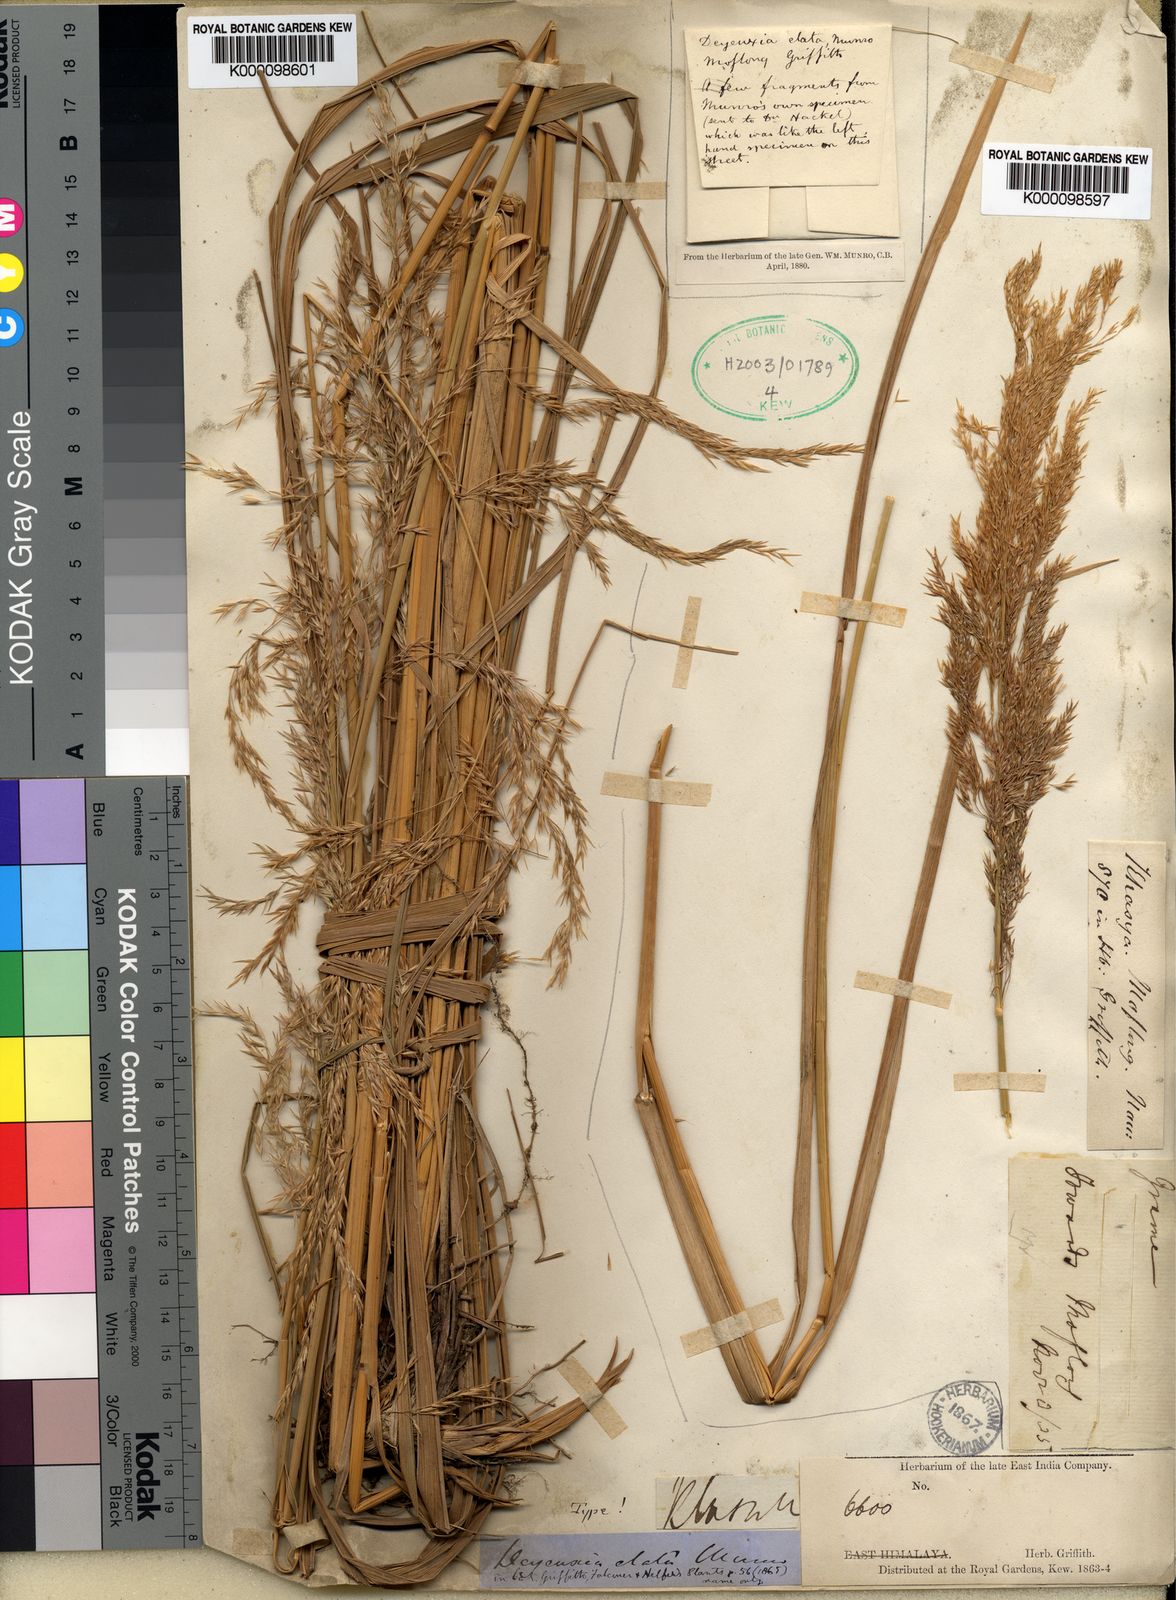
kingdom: Plantae
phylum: Tracheophyta
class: Liliopsida
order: Poales
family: Poaceae
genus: Calamagrostis
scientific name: Calamagrostis
